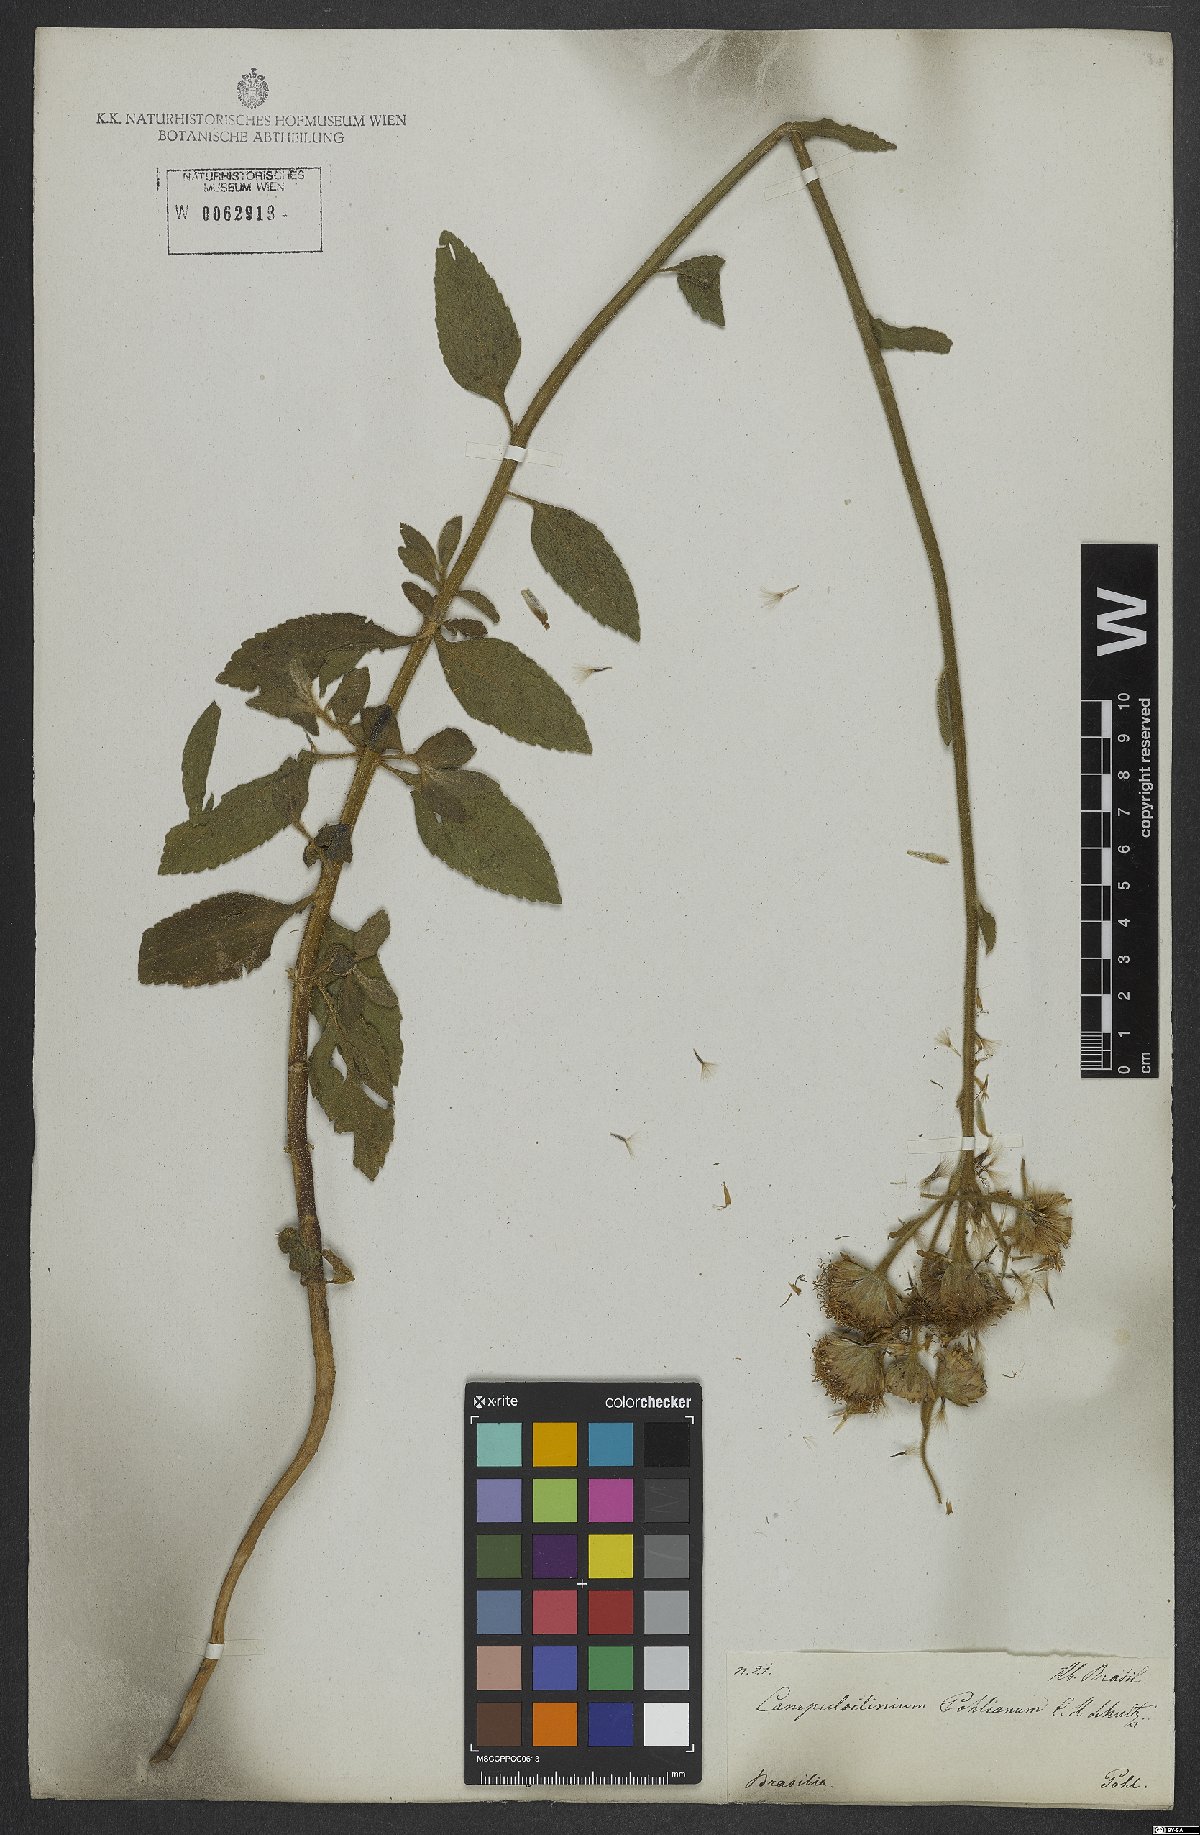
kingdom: Plantae
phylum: Tracheophyta
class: Magnoliopsida
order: Asterales
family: Asteraceae
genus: Campuloclinium
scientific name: Campuloclinium macrocephalum
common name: Pompomweed
